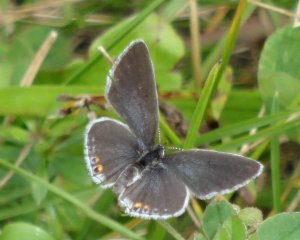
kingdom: Animalia
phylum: Arthropoda
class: Insecta
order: Lepidoptera
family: Lycaenidae
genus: Elkalyce
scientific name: Elkalyce comyntas
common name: Eastern Tailed-Blue
